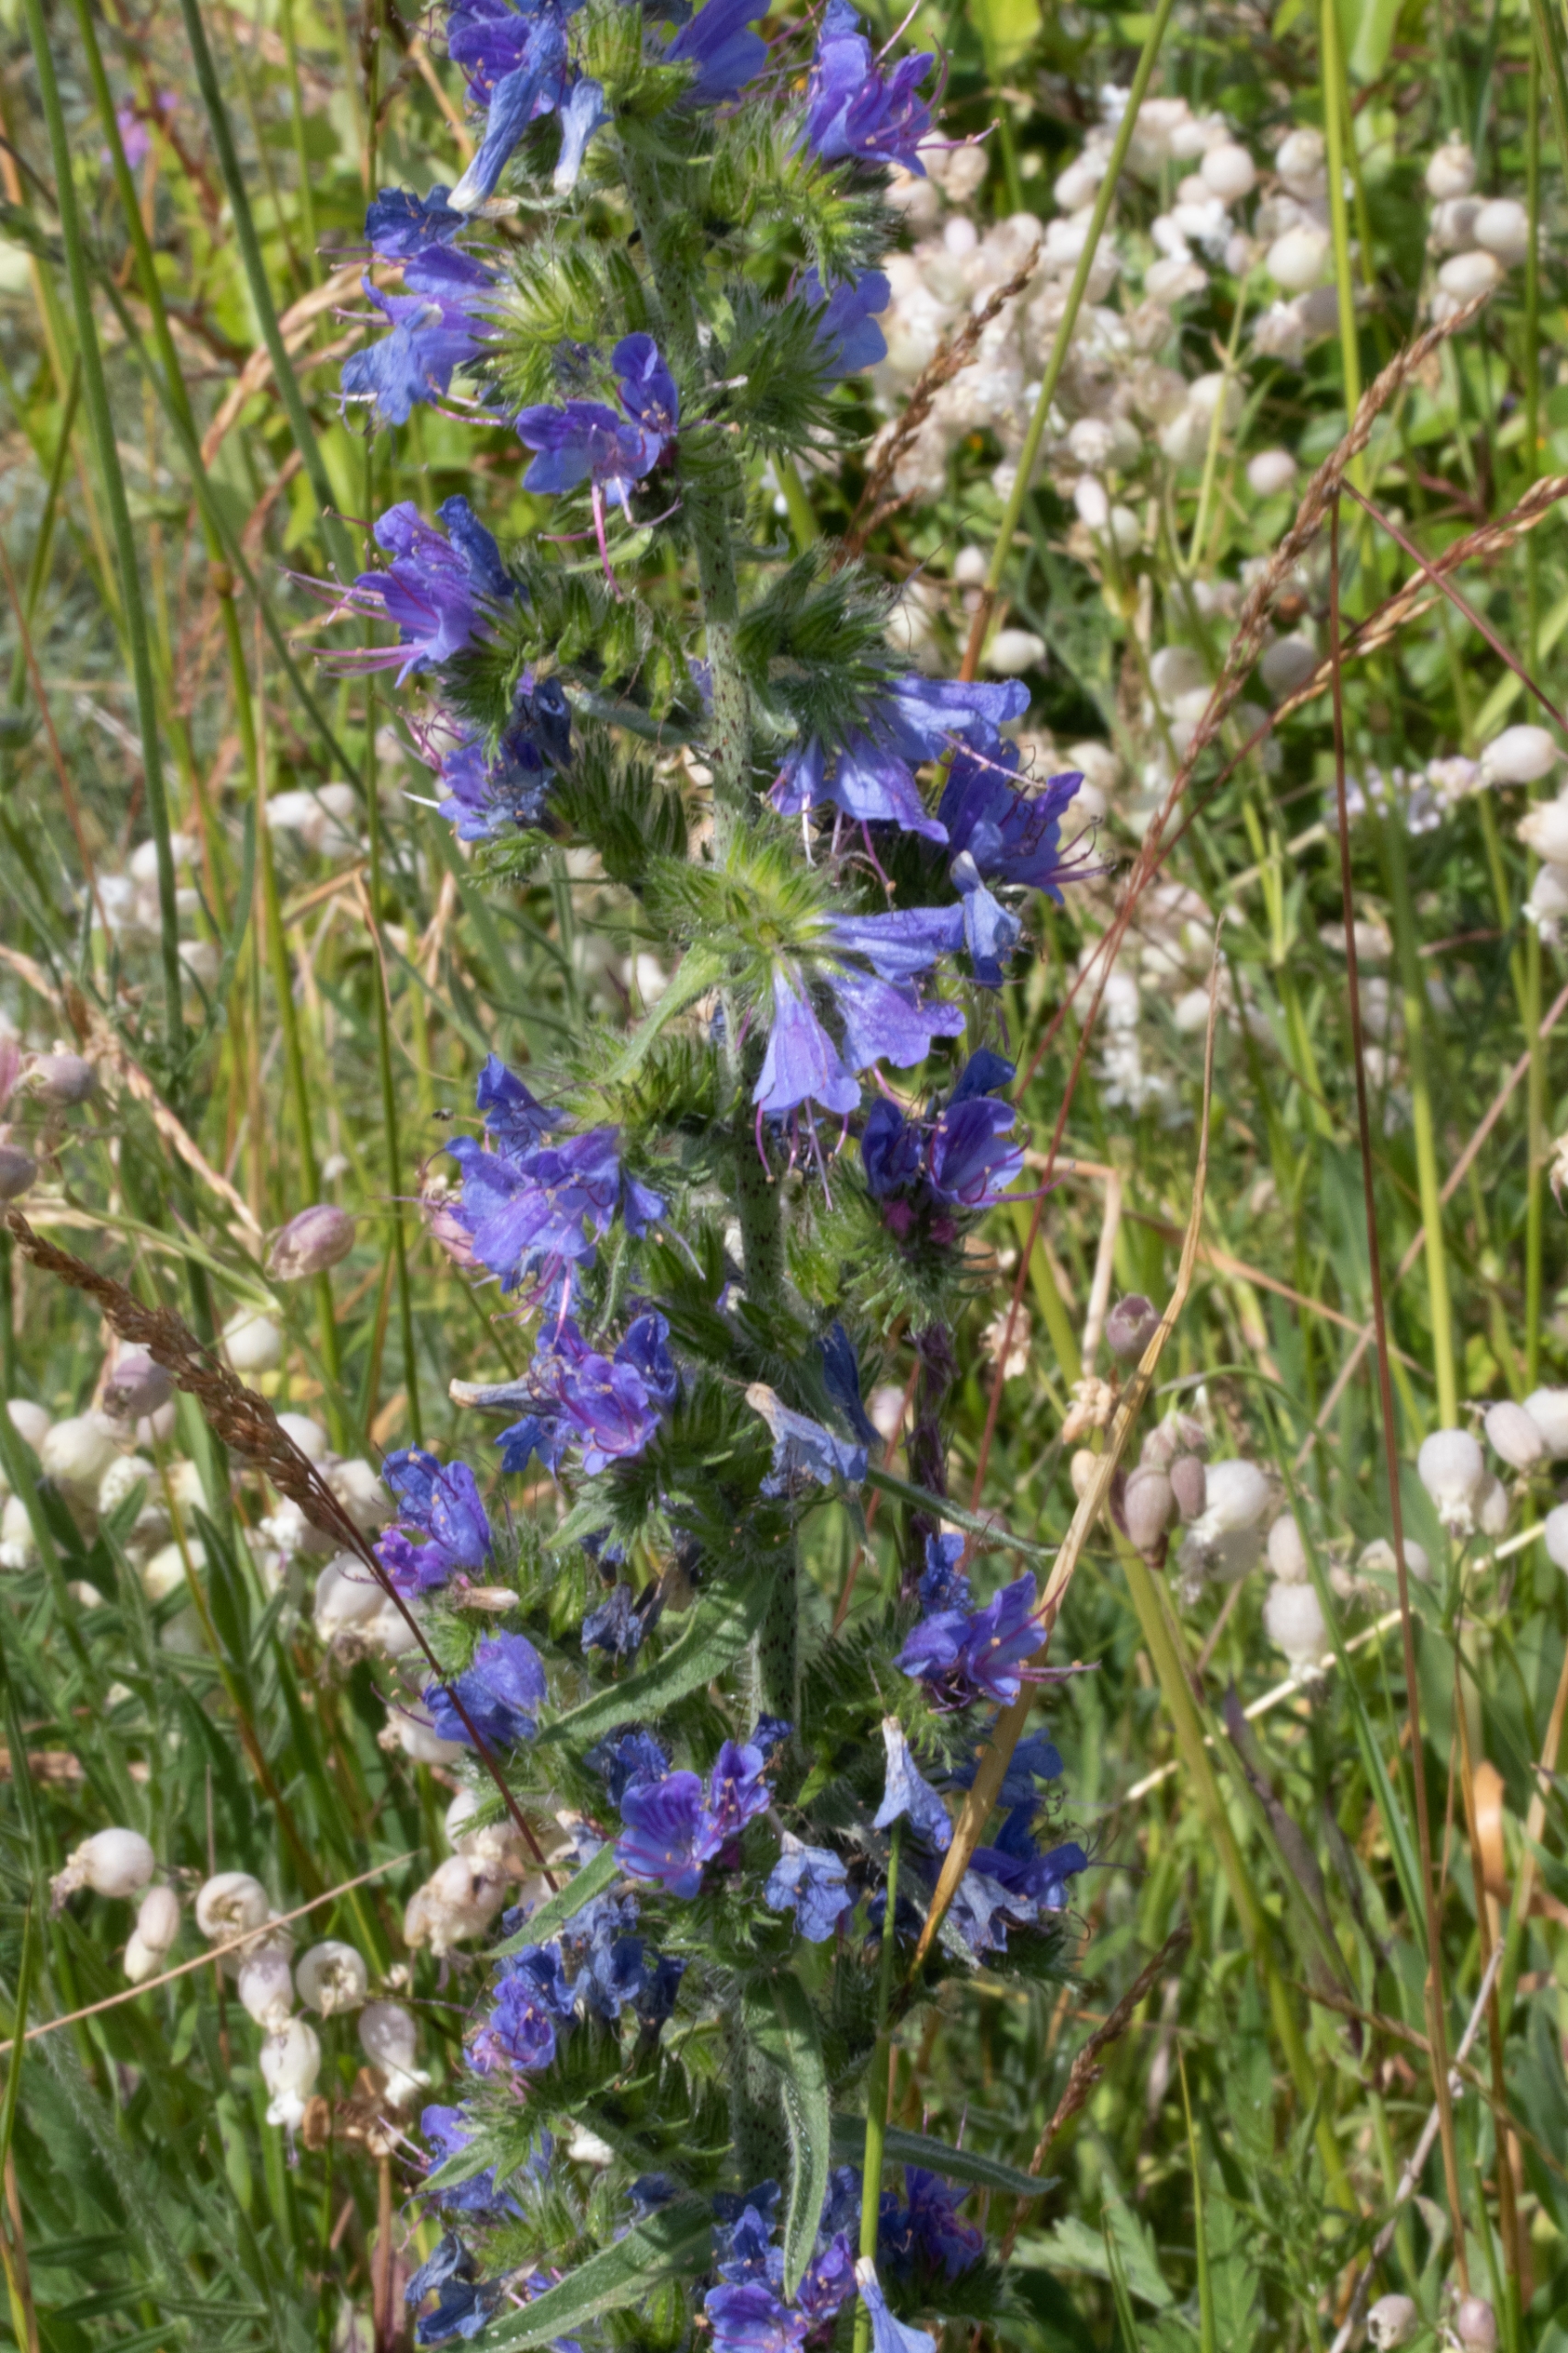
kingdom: Plantae
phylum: Tracheophyta
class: Magnoliopsida
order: Boraginales
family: Boraginaceae
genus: Echium
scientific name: Echium vulgare
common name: Slangehoved
